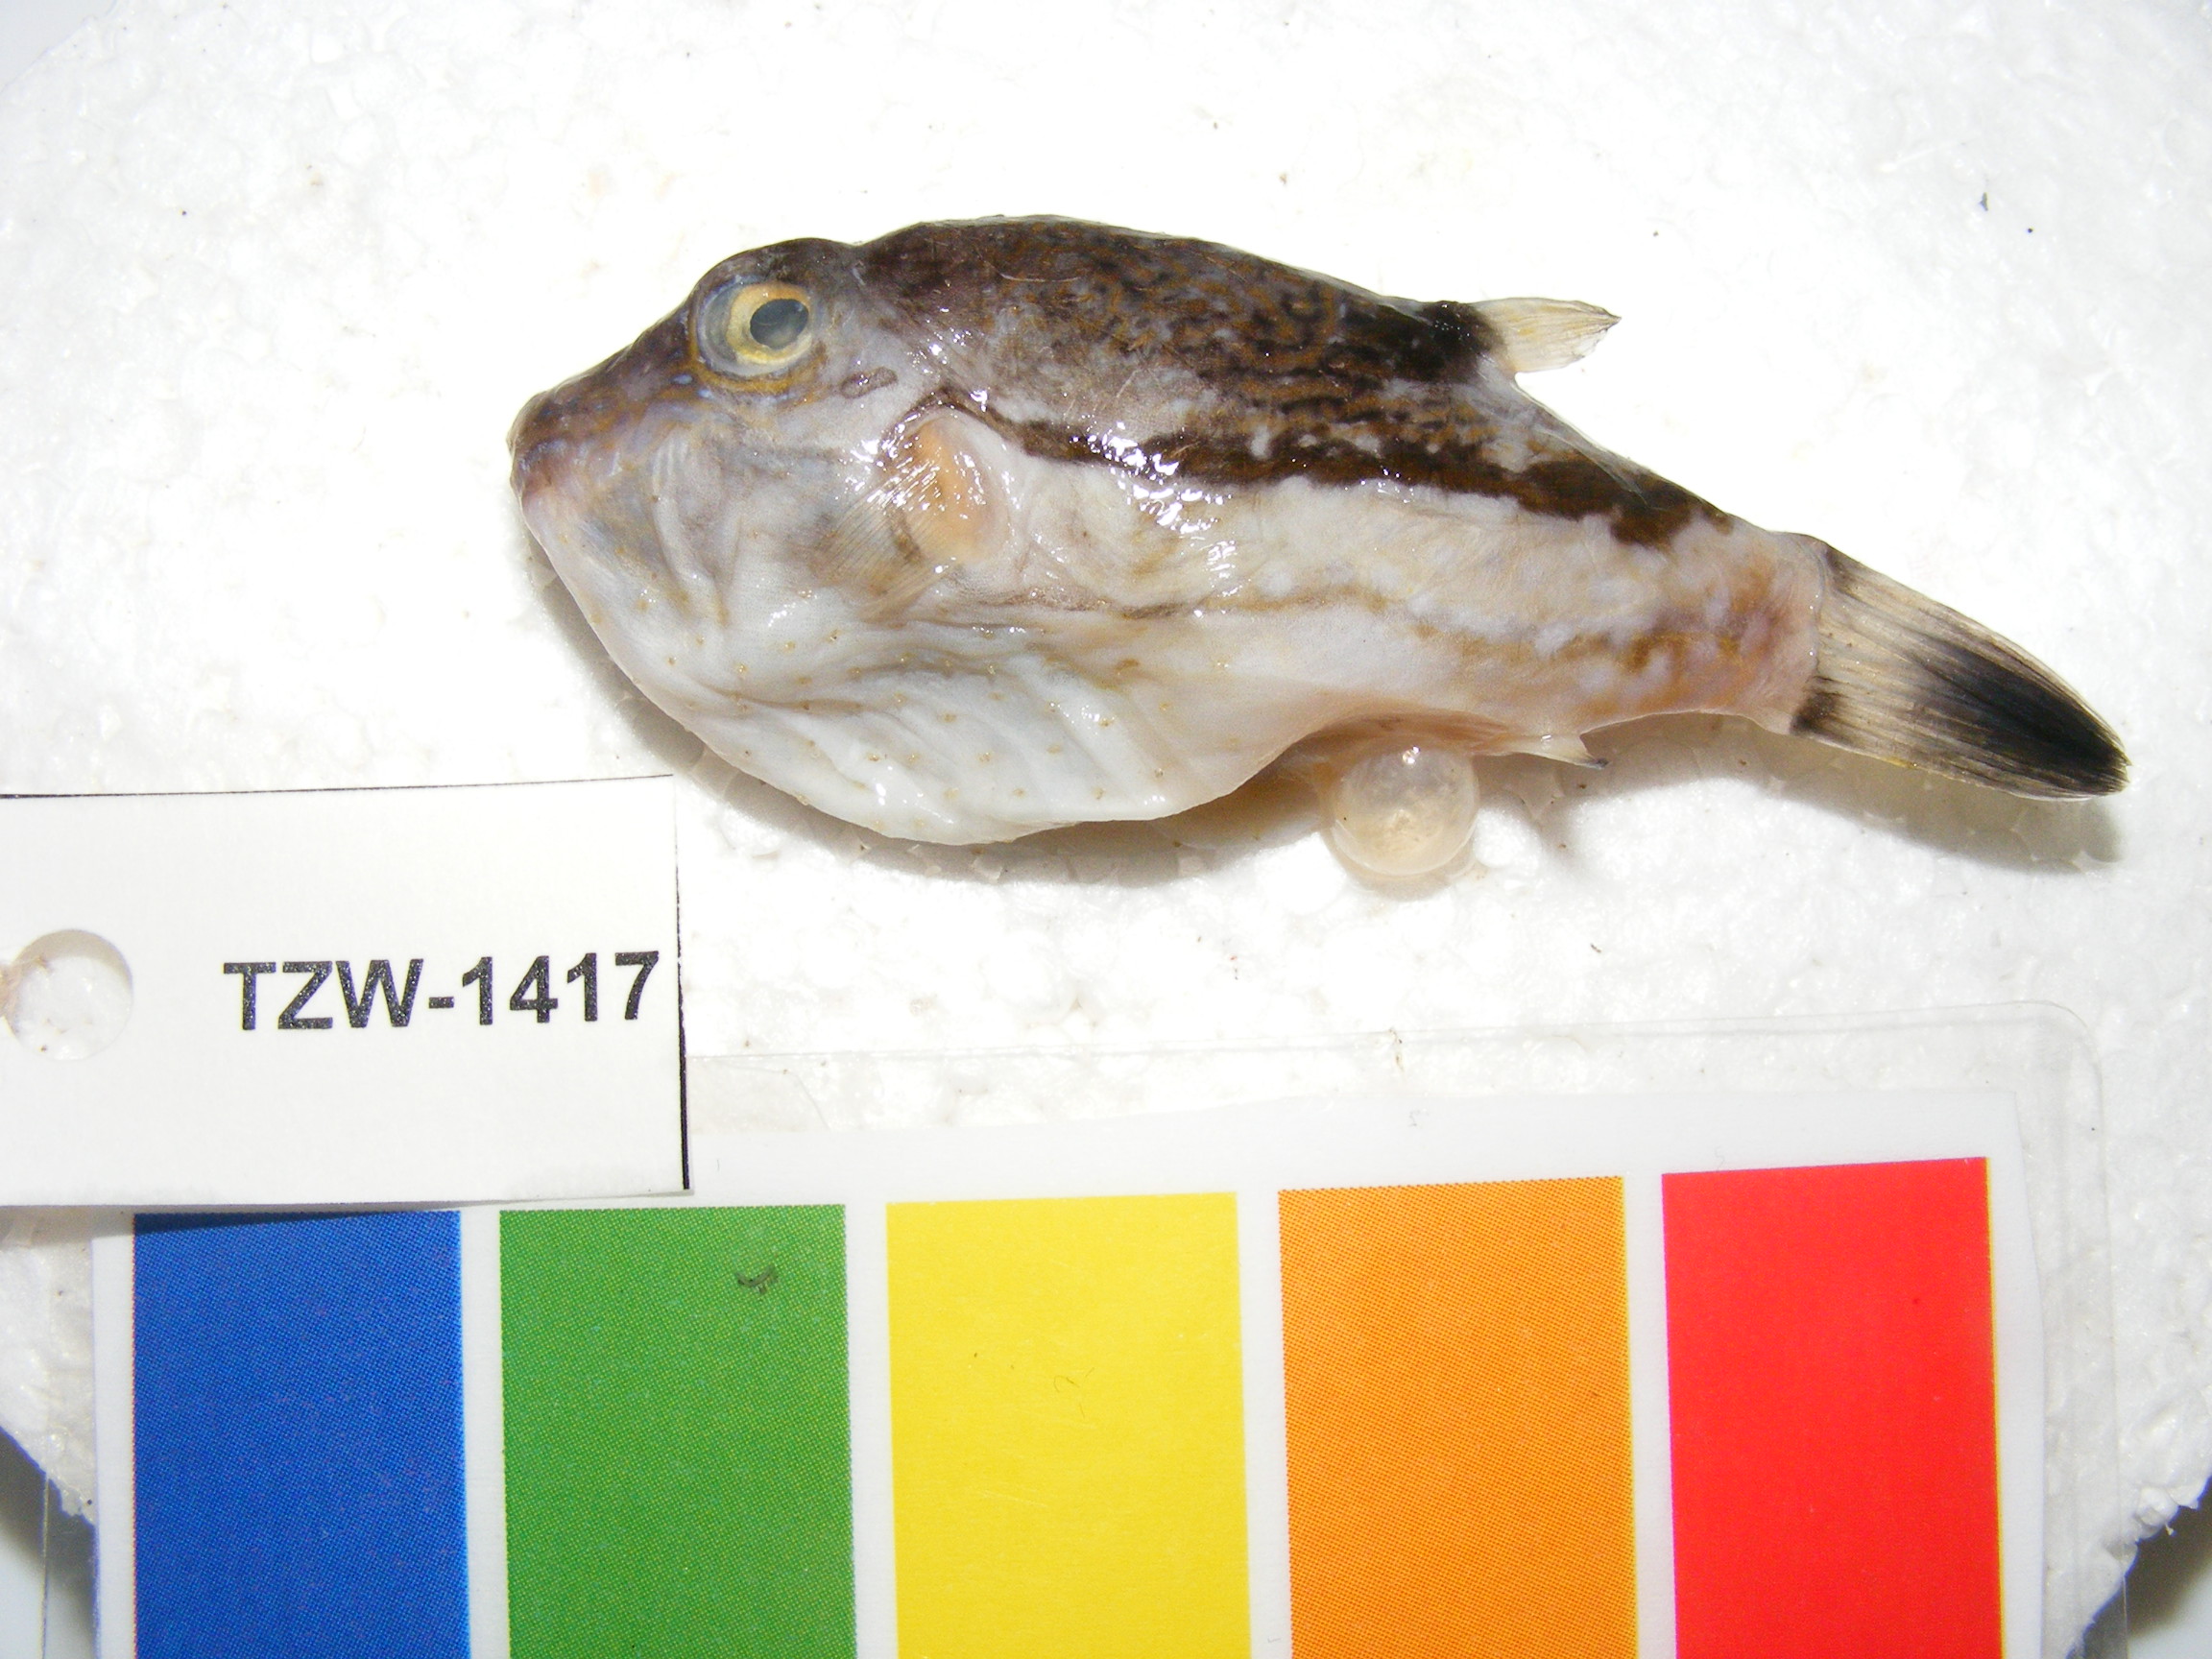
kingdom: Animalia
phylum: Chordata
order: Tetraodontiformes
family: Tetraodontidae
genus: Canthigaster
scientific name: Canthigaster rivulata
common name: Brown-lined puffer
